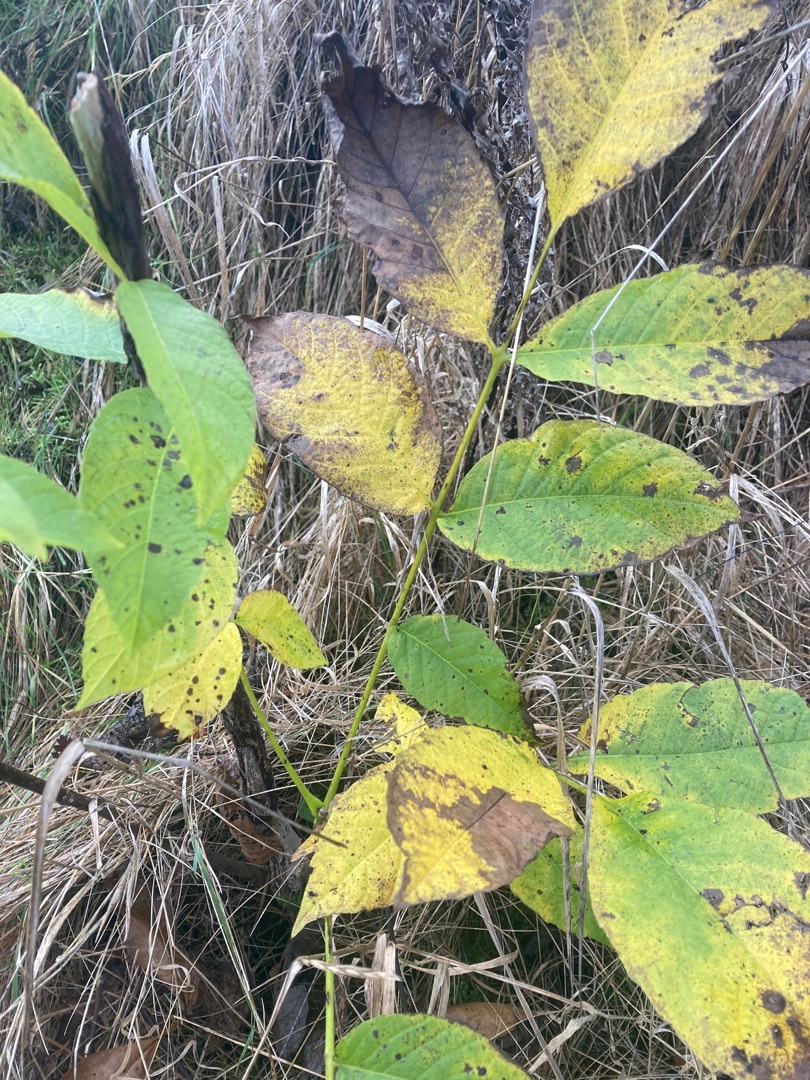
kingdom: Plantae
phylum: Tracheophyta
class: Magnoliopsida
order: Fagales
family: Juglandaceae
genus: Juglans
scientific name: Juglans regia
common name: Almindelig valnød
